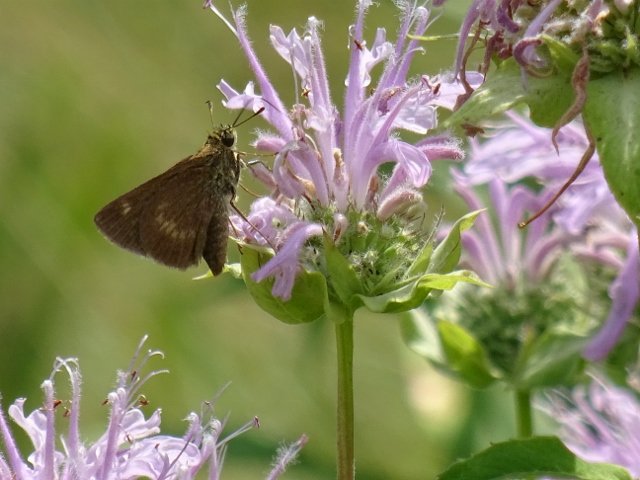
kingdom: Animalia
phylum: Arthropoda
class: Insecta
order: Lepidoptera
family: Hesperiidae
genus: Polites
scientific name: Polites egeremet
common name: Northern Broken-Dash
